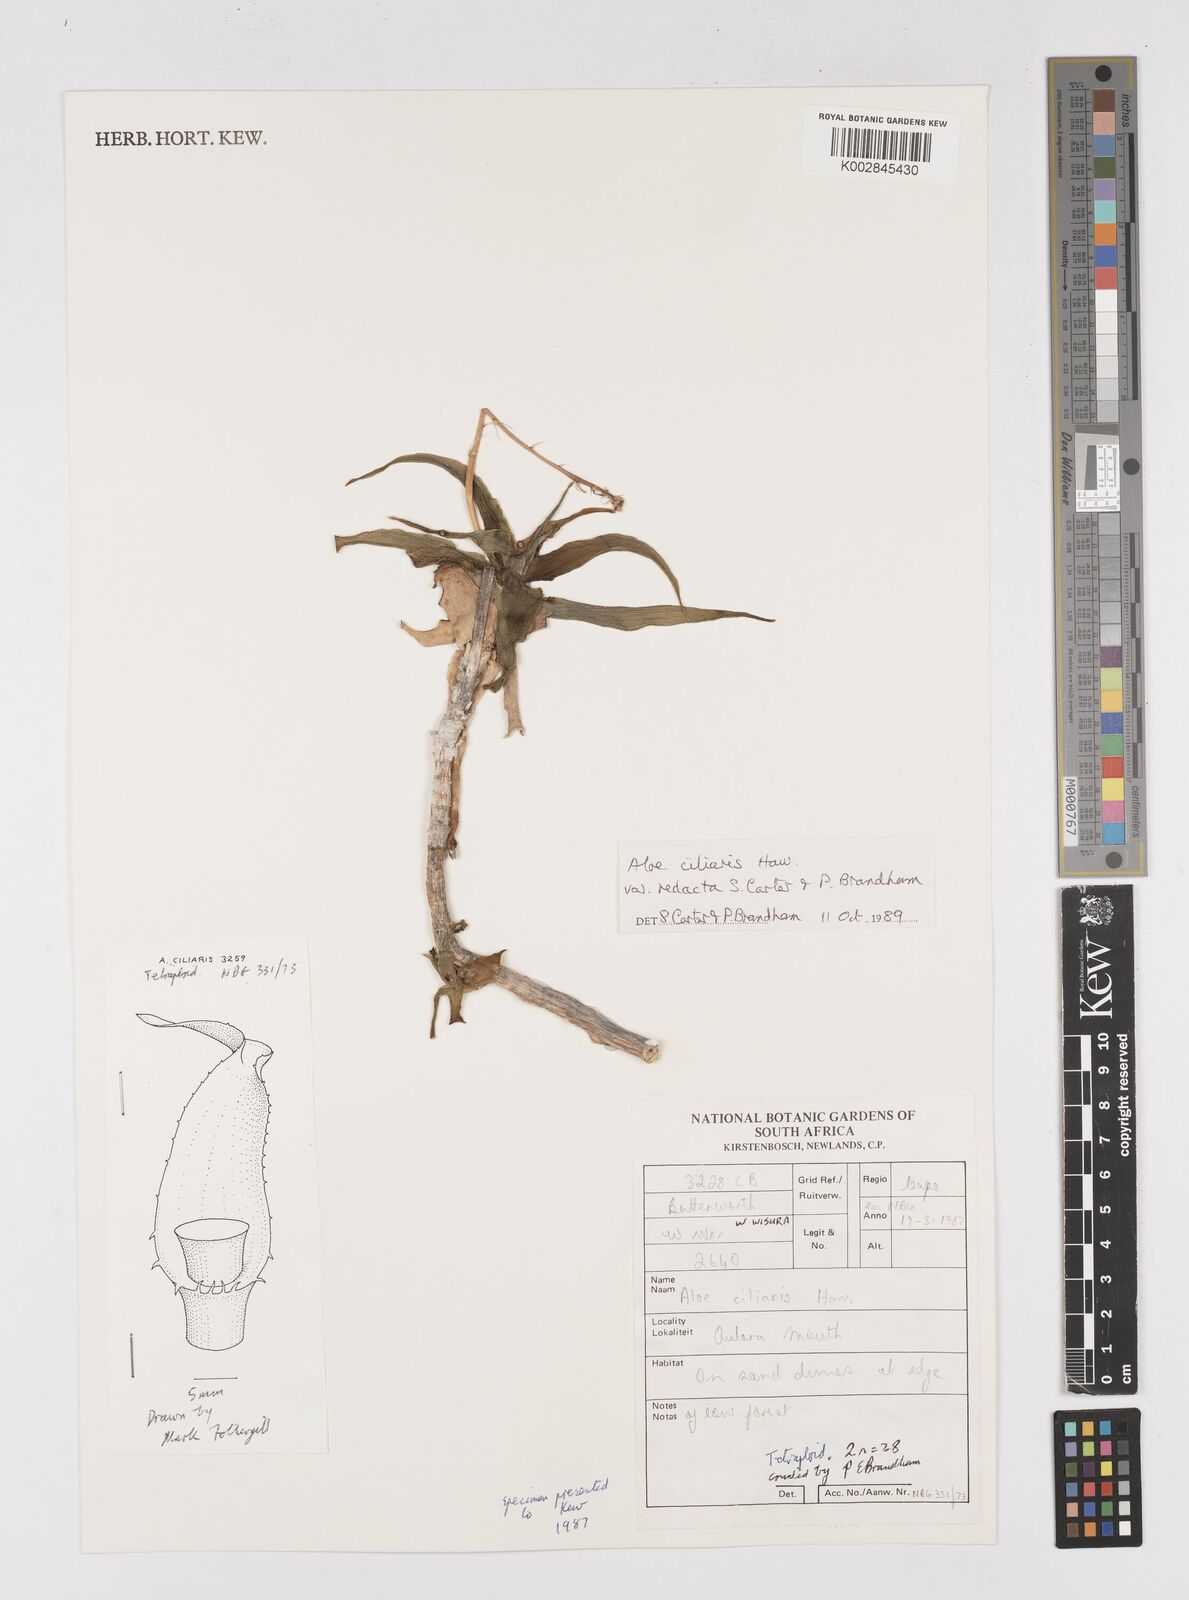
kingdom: Plantae
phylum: Tracheophyta
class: Liliopsida
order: Asparagales
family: Asphodelaceae
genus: Aloiampelos
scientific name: Aloiampelos ciliaris
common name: Climbing aloe
